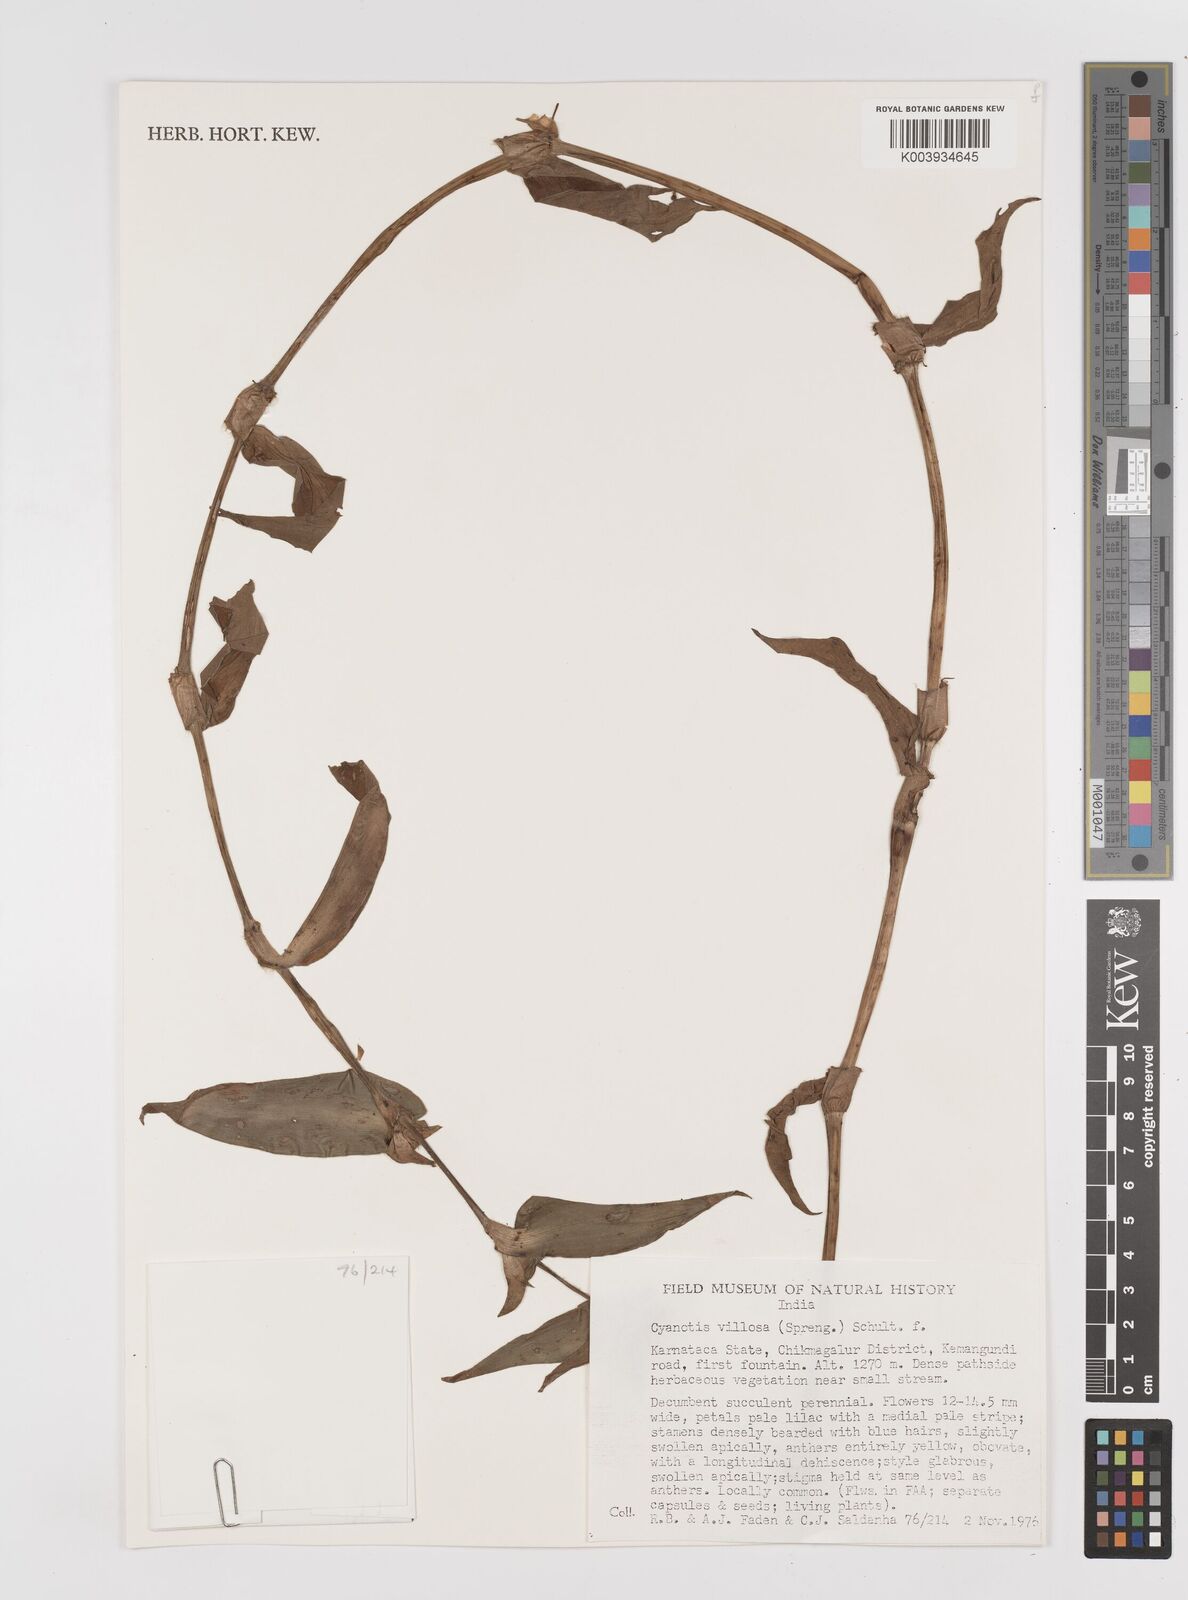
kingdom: Plantae
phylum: Tracheophyta
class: Liliopsida
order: Commelinales
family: Commelinaceae
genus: Cyanotis
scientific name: Cyanotis villosa
